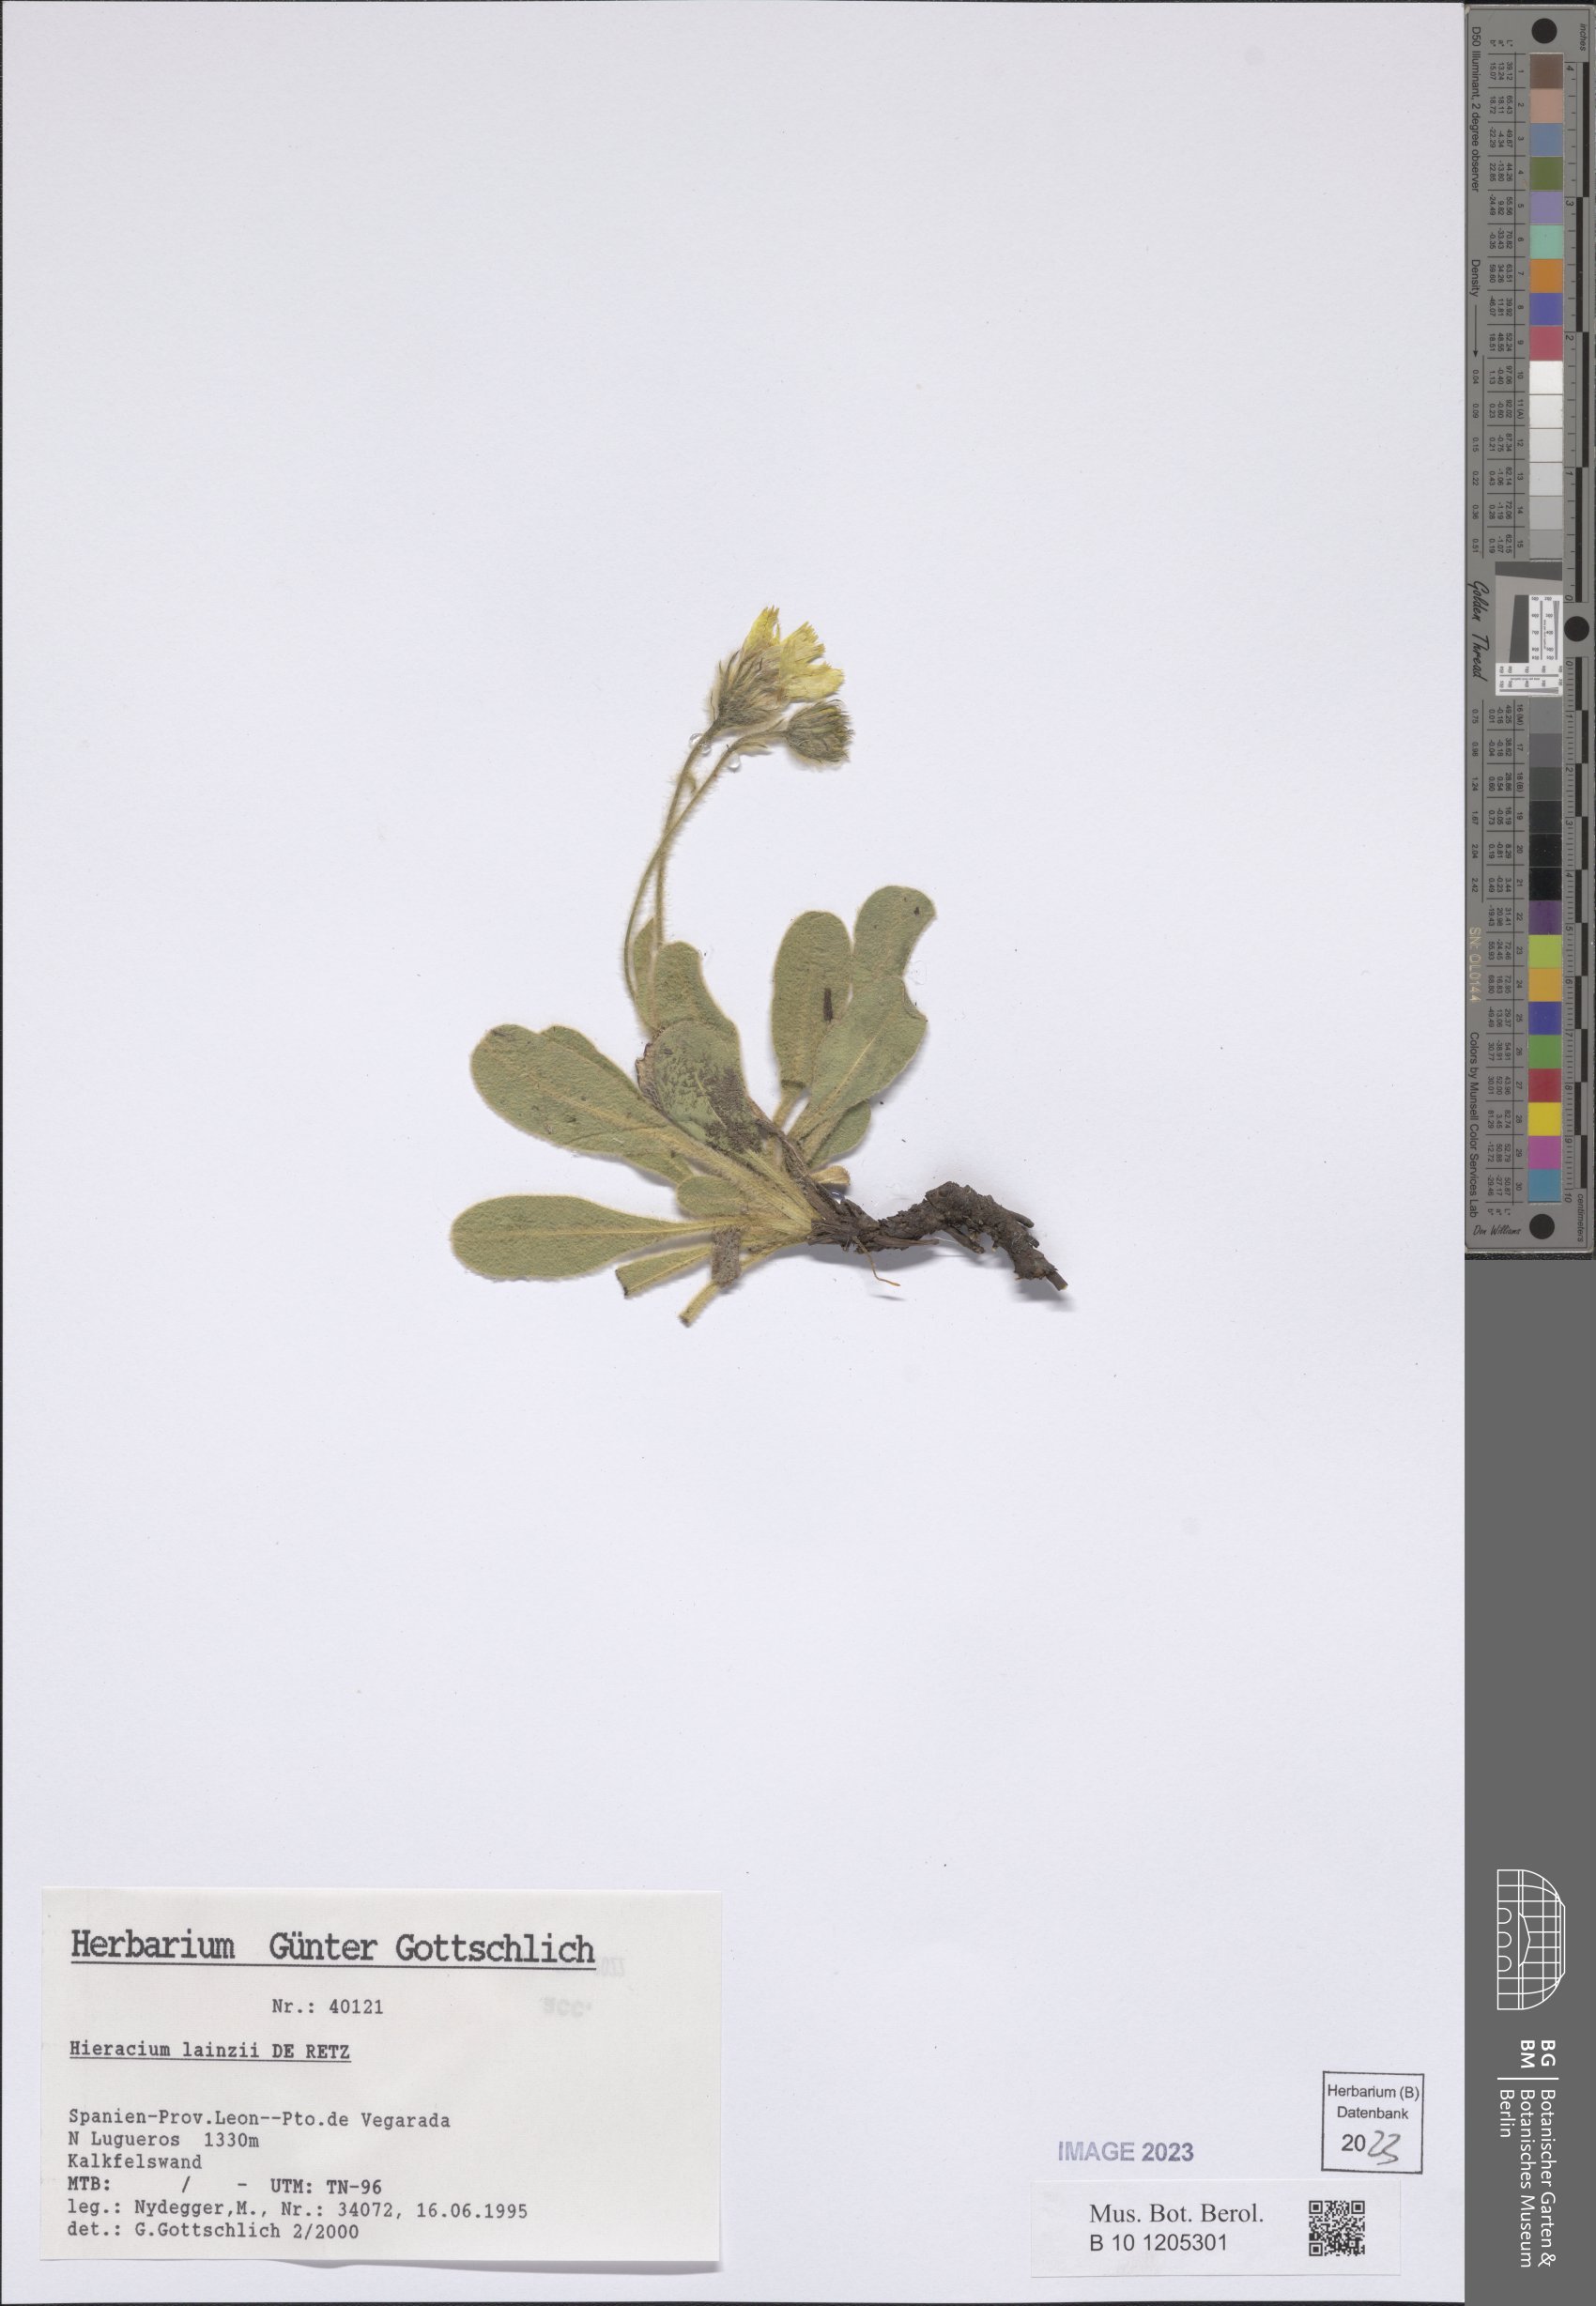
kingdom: Plantae
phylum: Tracheophyta
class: Magnoliopsida
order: Asterales
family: Asteraceae
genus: Hieracium
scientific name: Hieracium lainzii
